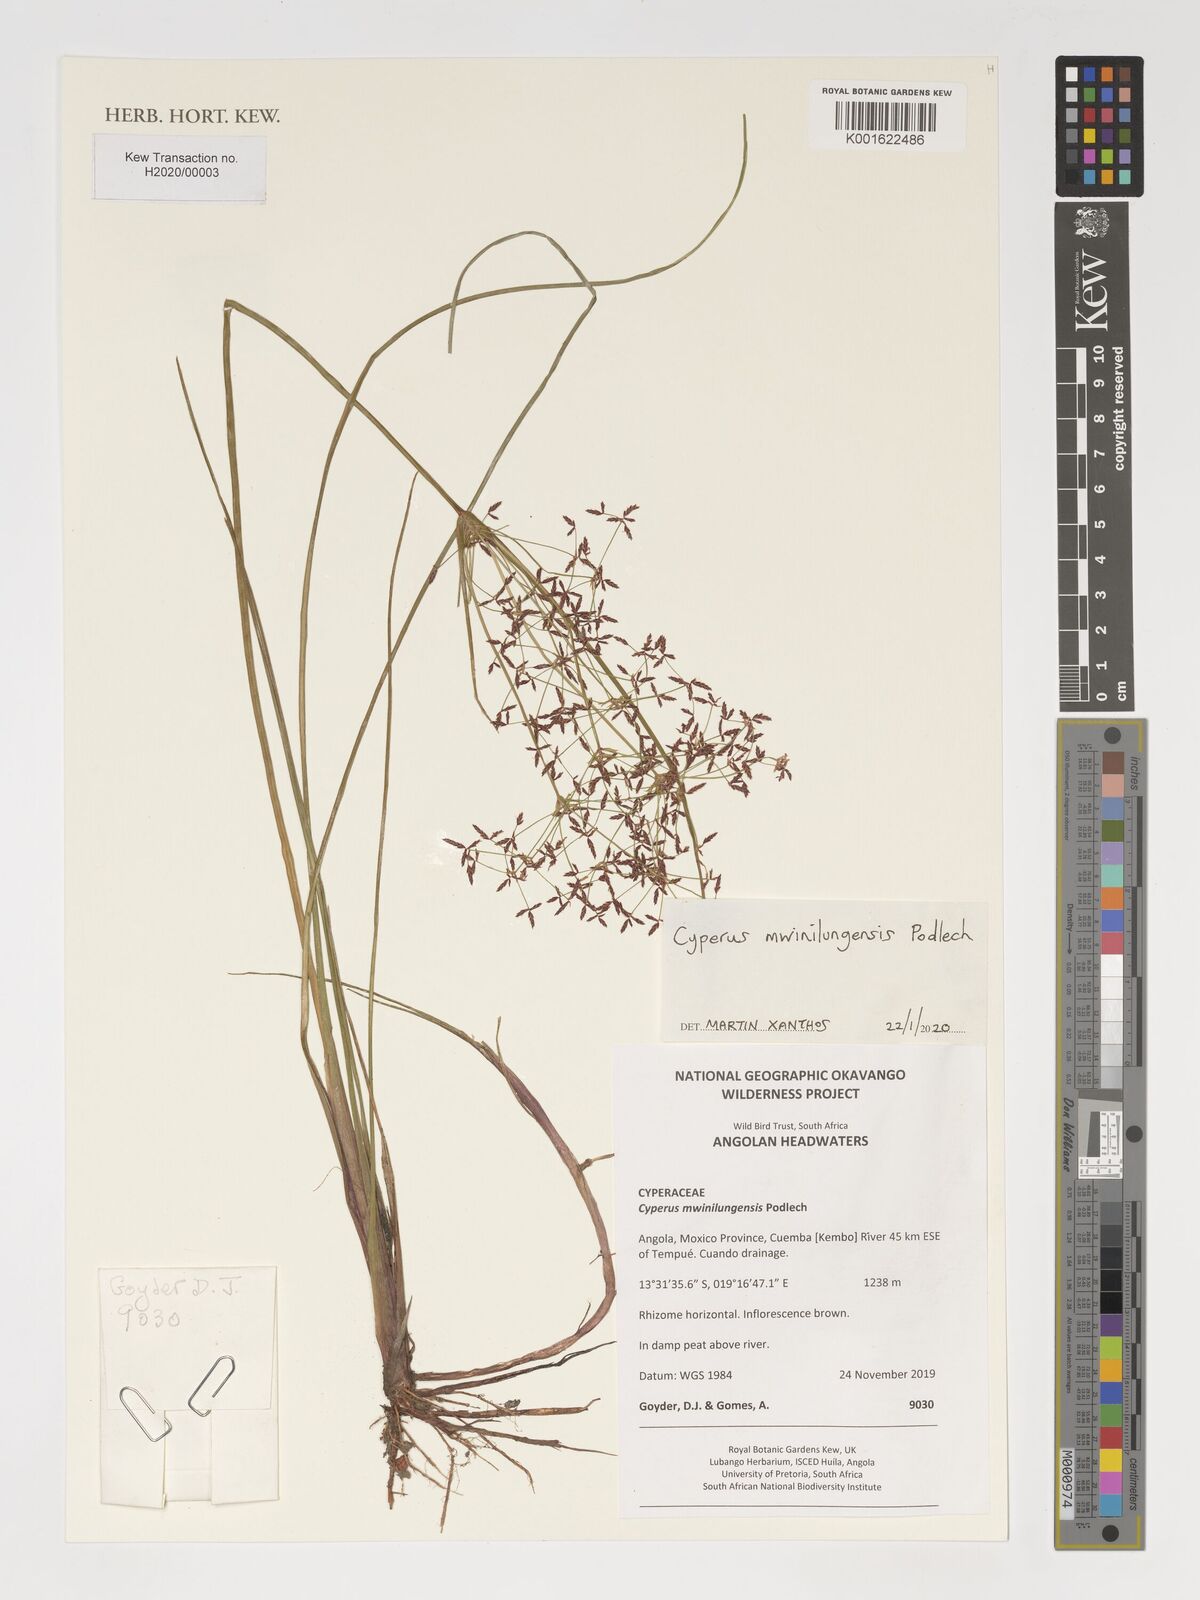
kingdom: Plantae
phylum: Tracheophyta
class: Liliopsida
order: Poales
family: Cyperaceae
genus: Cyperus
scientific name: Cyperus mwinilungensis
